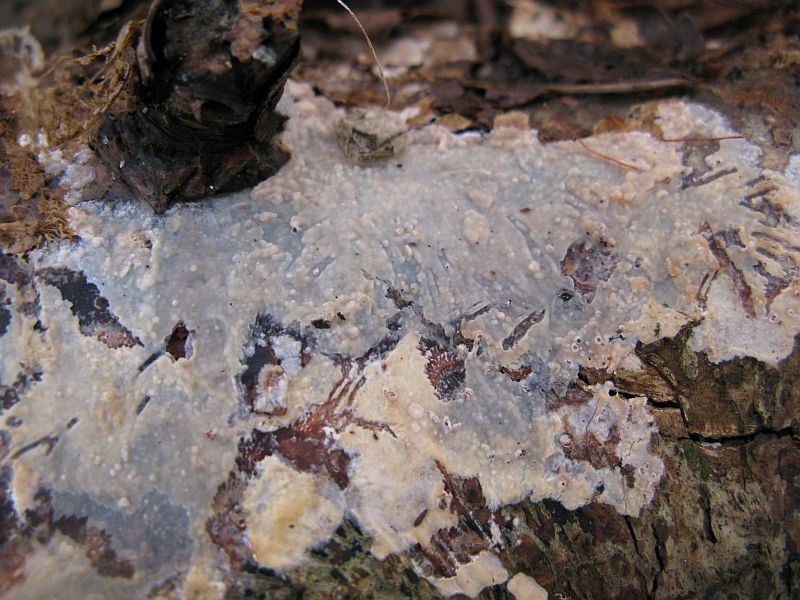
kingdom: Fungi
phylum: Basidiomycota
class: Agaricomycetes
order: Agaricales
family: Radulomycetaceae
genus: Radulomyces
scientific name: Radulomyces confluens
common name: glat naftalinskind
